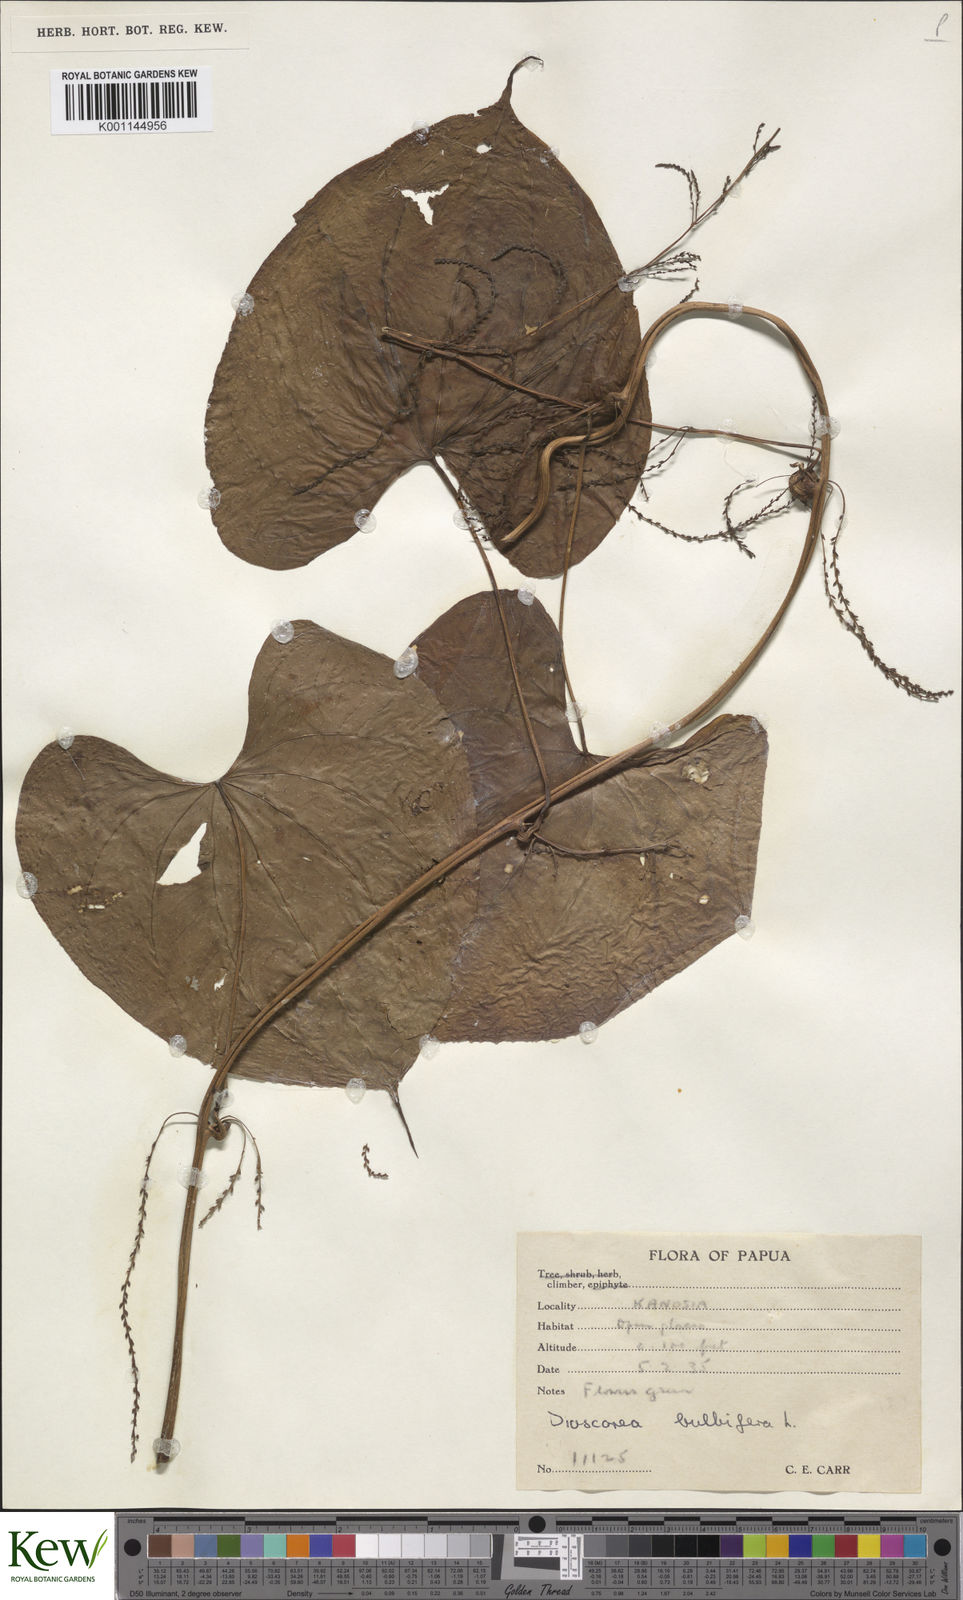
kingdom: Plantae
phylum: Tracheophyta
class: Liliopsida
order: Dioscoreales
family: Dioscoreaceae
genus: Dioscorea
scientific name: Dioscorea bulbifera
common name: Air yam
